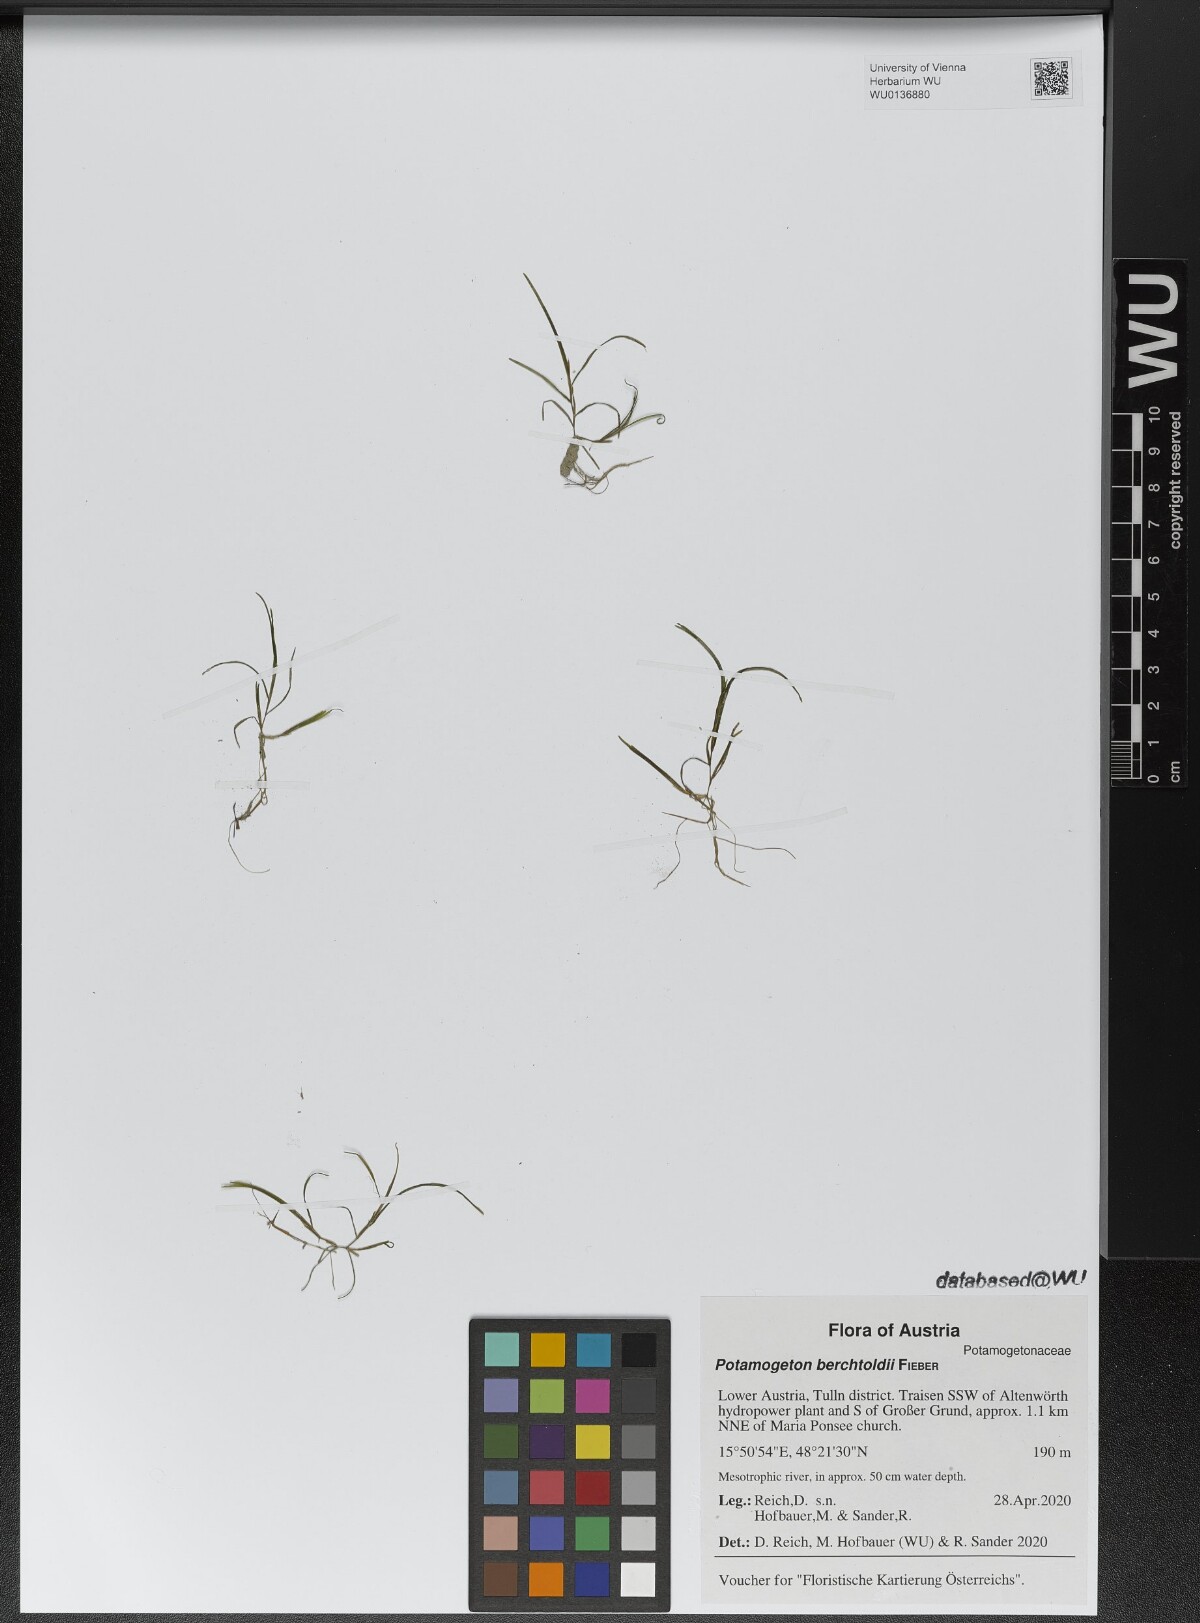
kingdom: Plantae
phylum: Tracheophyta
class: Liliopsida
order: Alismatales
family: Potamogetonaceae
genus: Potamogeton
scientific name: Potamogeton berchtoldii
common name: Small pondweed
